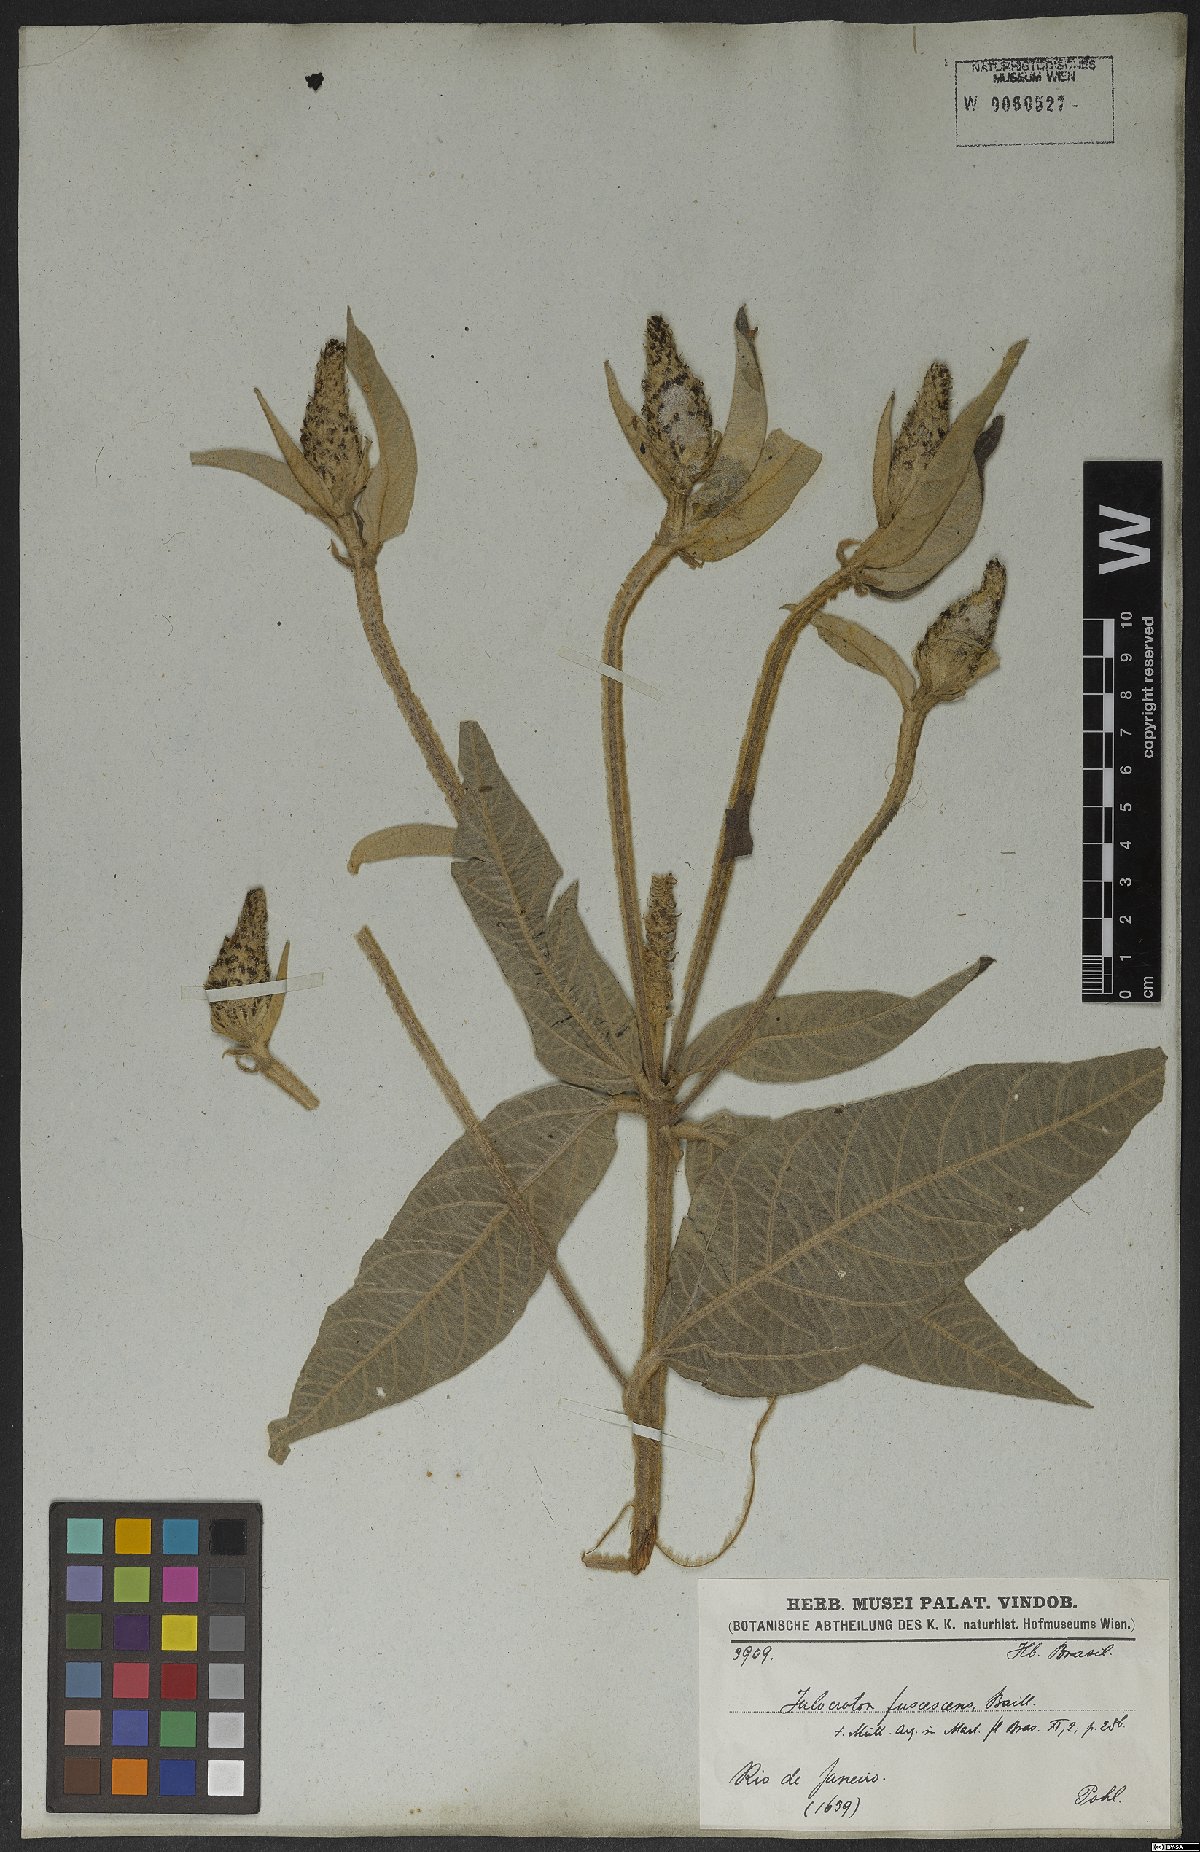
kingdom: Plantae
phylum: Tracheophyta
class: Magnoliopsida
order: Malpighiales
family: Euphorbiaceae
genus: Croton
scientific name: Croton gnaphaloides
